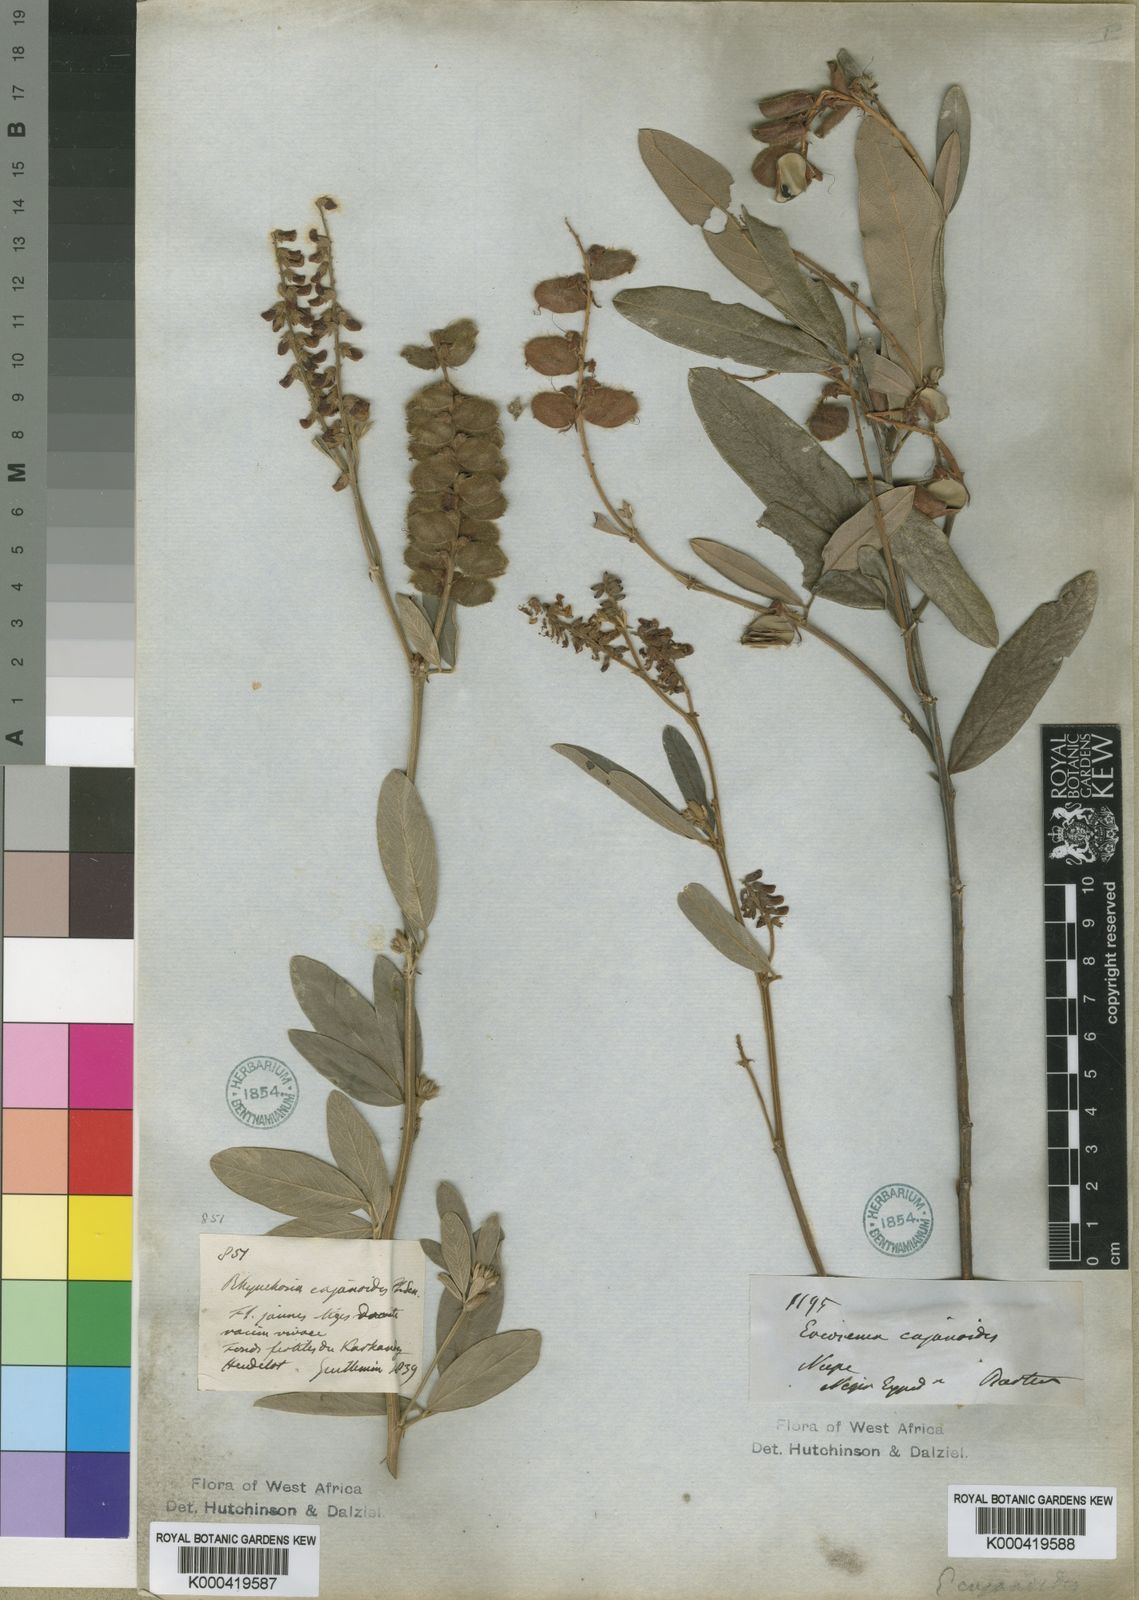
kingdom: Plantae
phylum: Tracheophyta
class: Magnoliopsida
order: Fabales
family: Fabaceae
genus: Eriosema
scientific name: Eriosema psoraleoides
